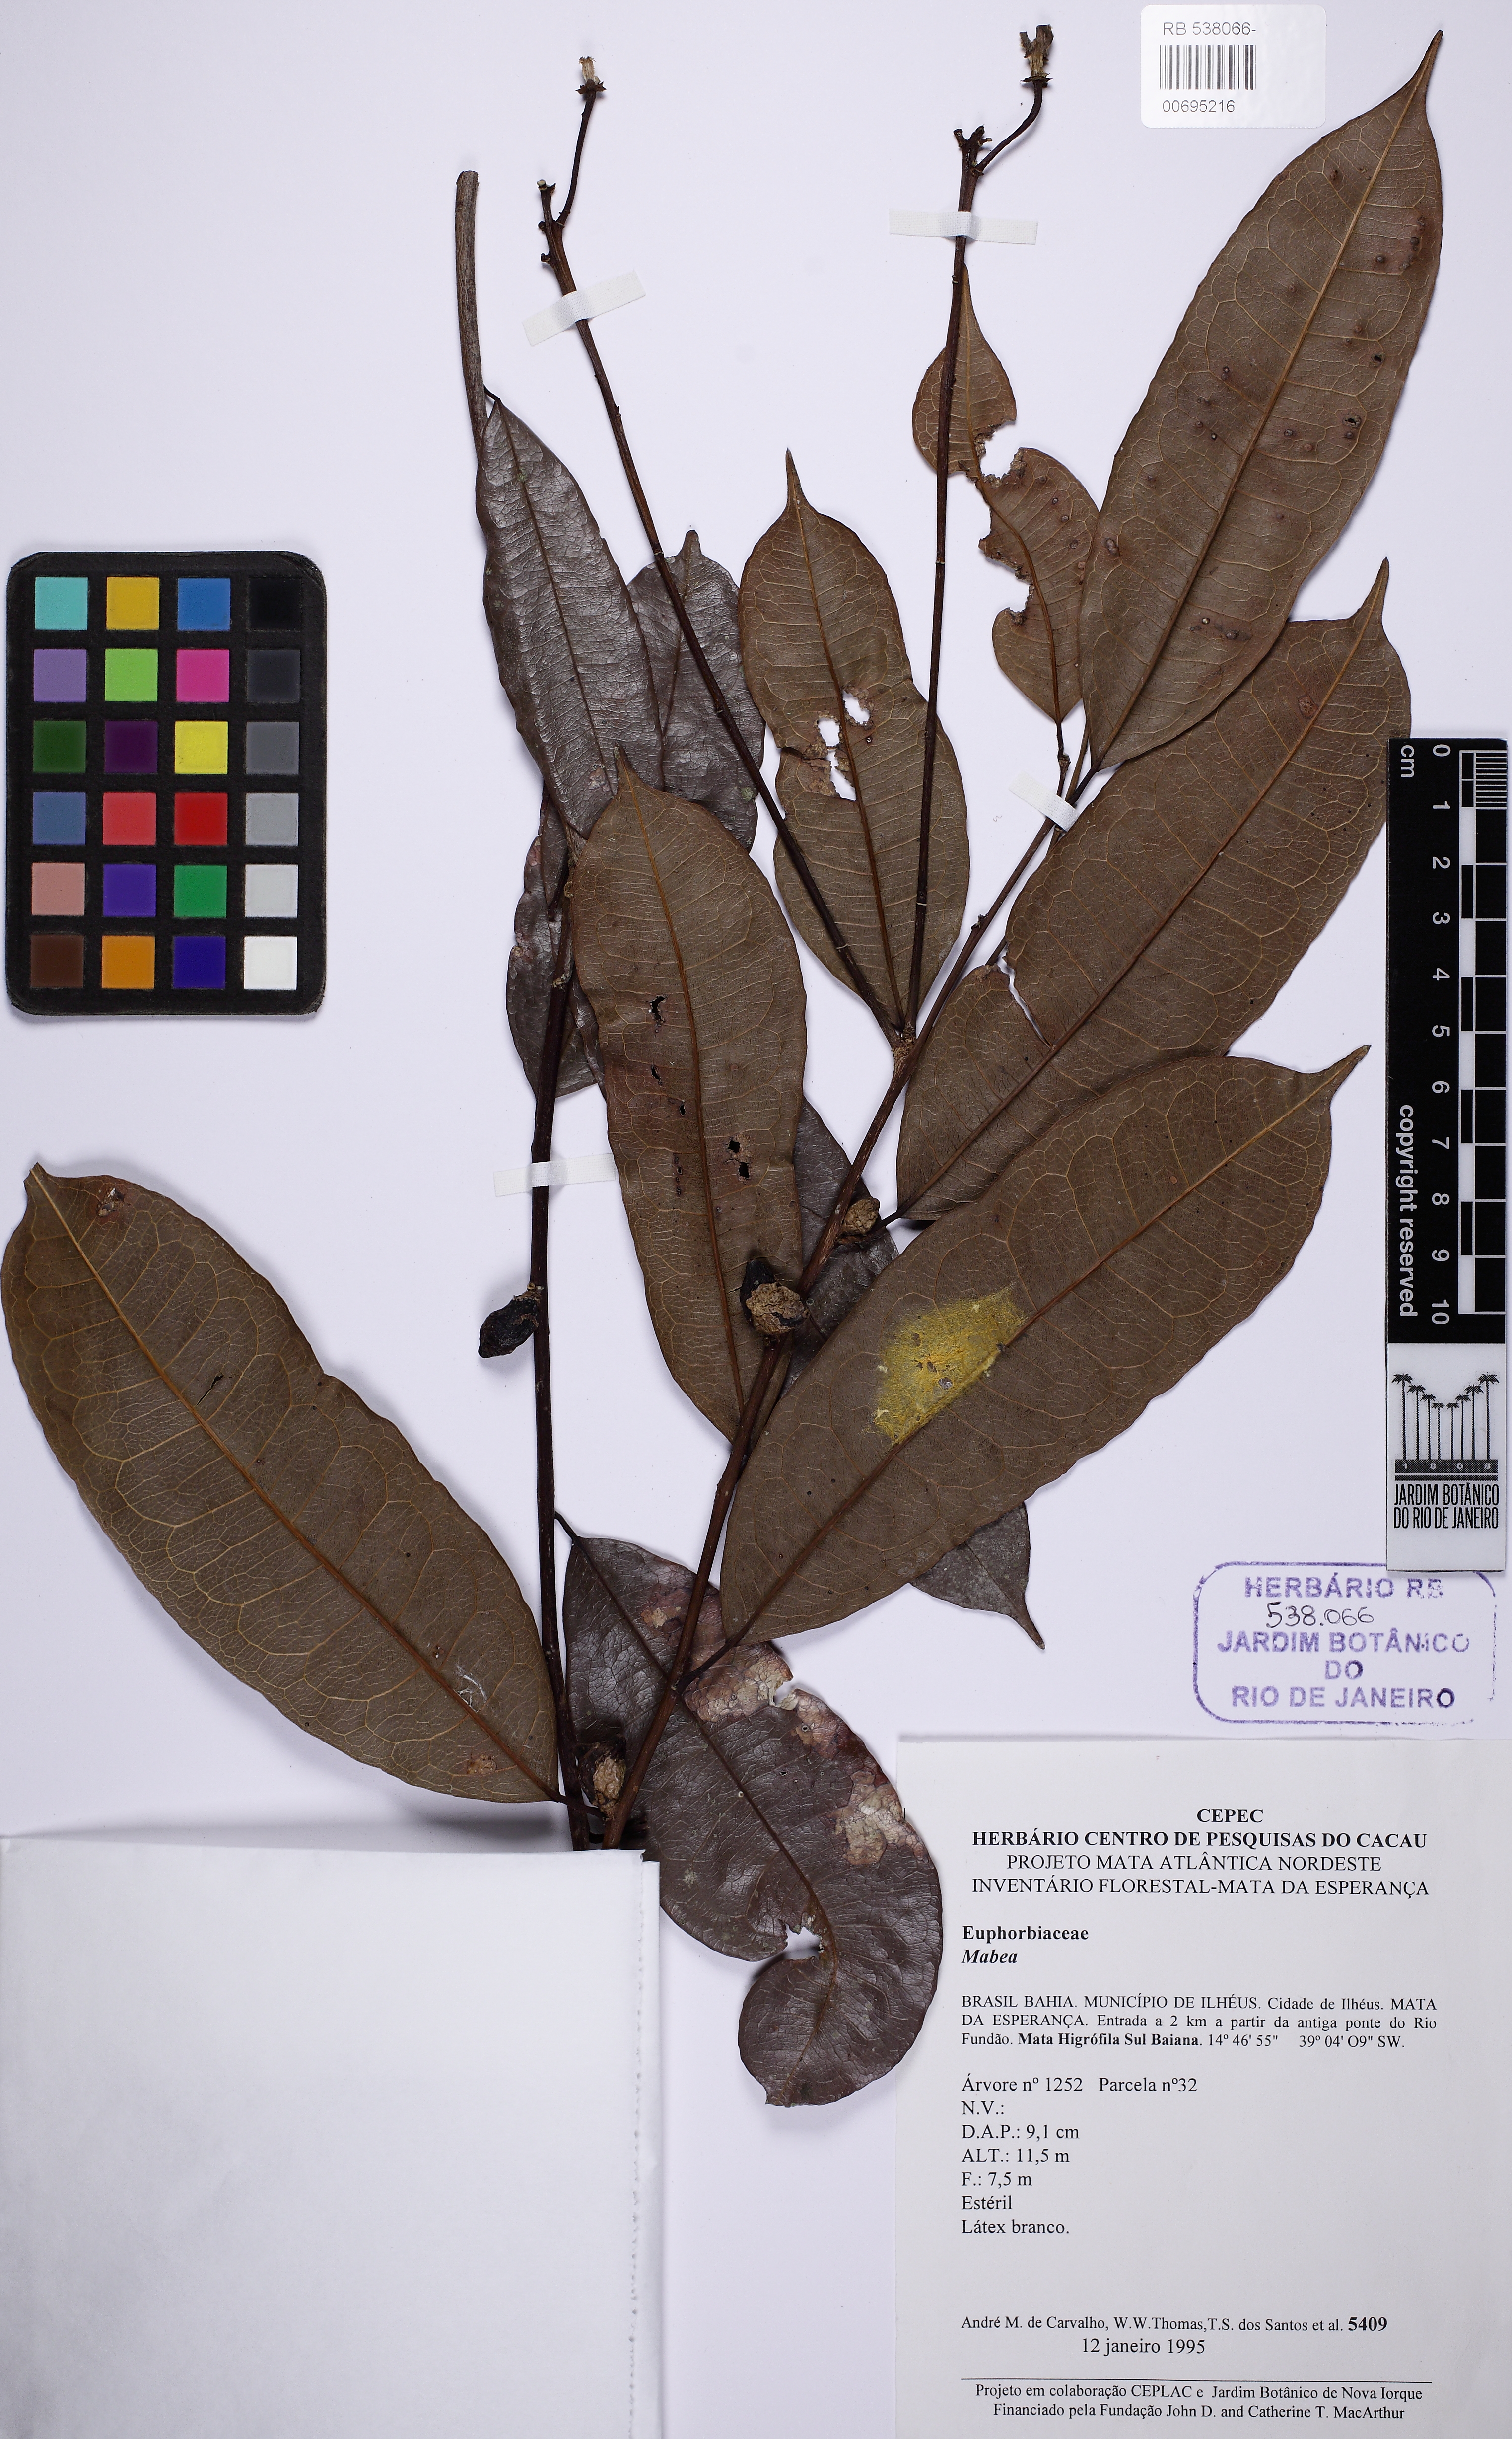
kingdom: Plantae
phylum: Tracheophyta
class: Magnoliopsida
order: Malpighiales
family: Euphorbiaceae
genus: Mabea
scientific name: Mabea
